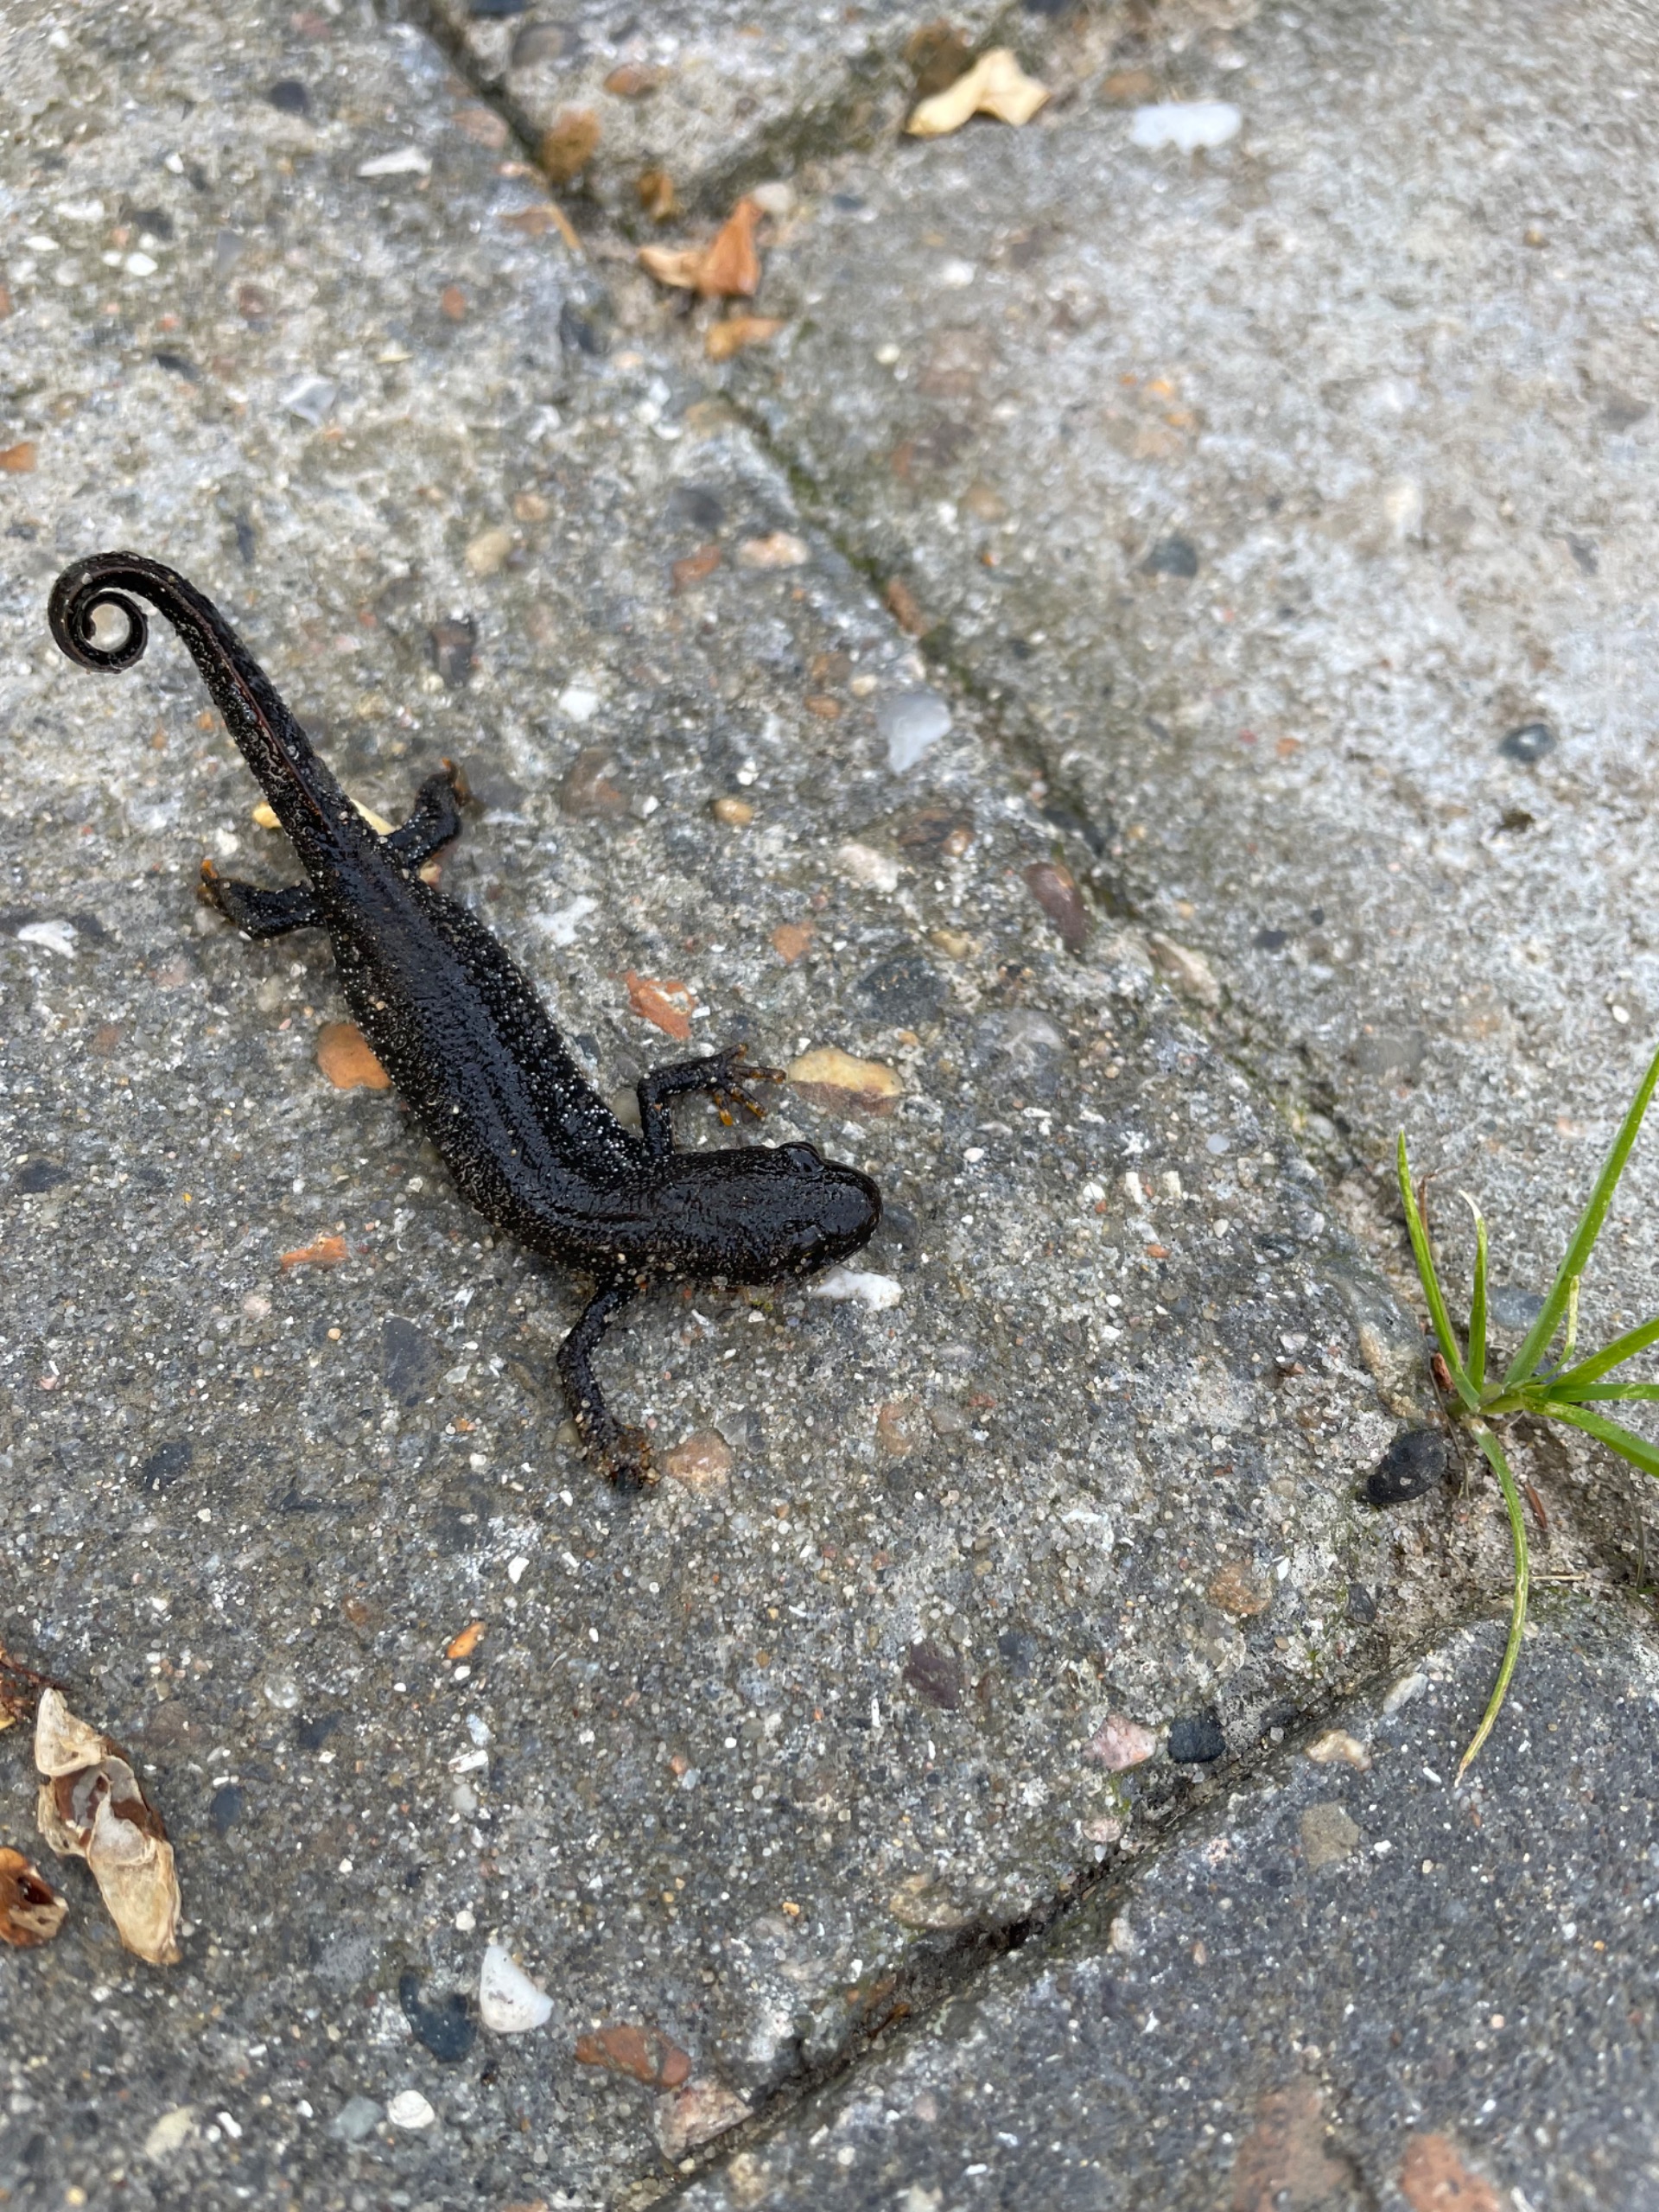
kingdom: Animalia
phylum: Chordata
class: Amphibia
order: Caudata
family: Salamandridae
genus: Triturus
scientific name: Triturus cristatus
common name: Stor vandsalamander
